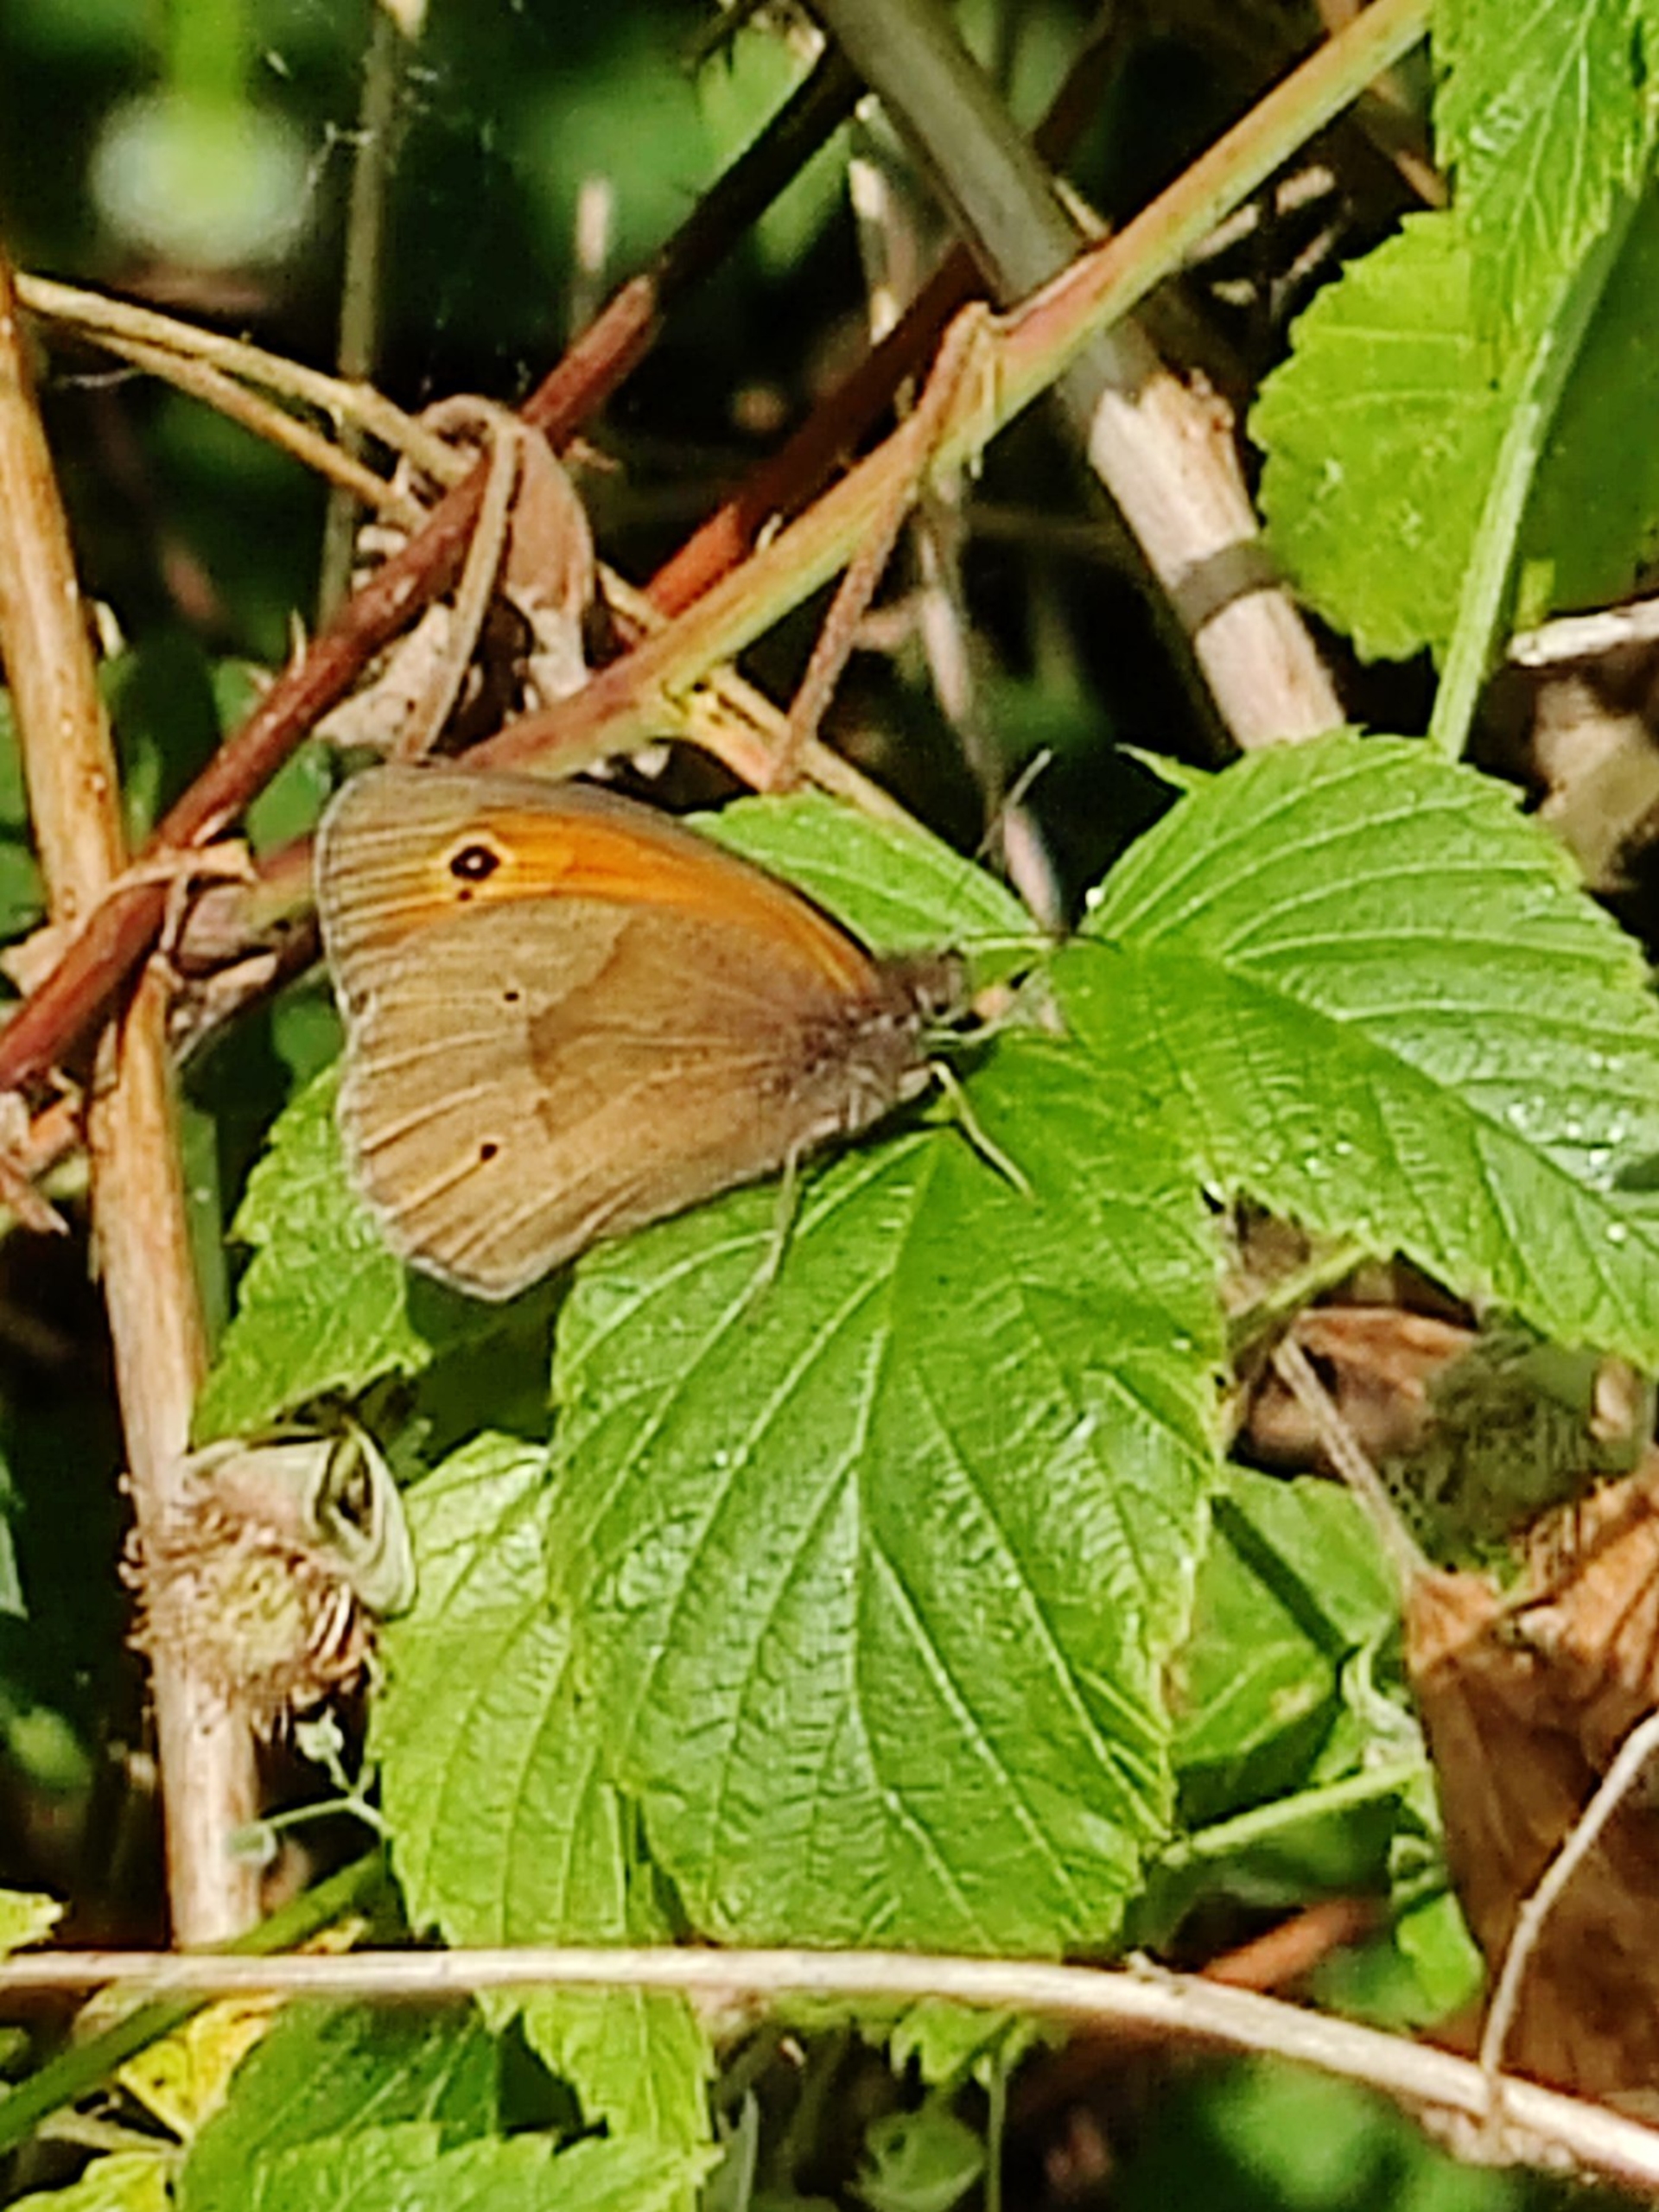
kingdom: Animalia
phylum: Arthropoda
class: Insecta
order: Lepidoptera
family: Nymphalidae
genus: Maniola
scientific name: Maniola jurtina
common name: Græsrandøje
